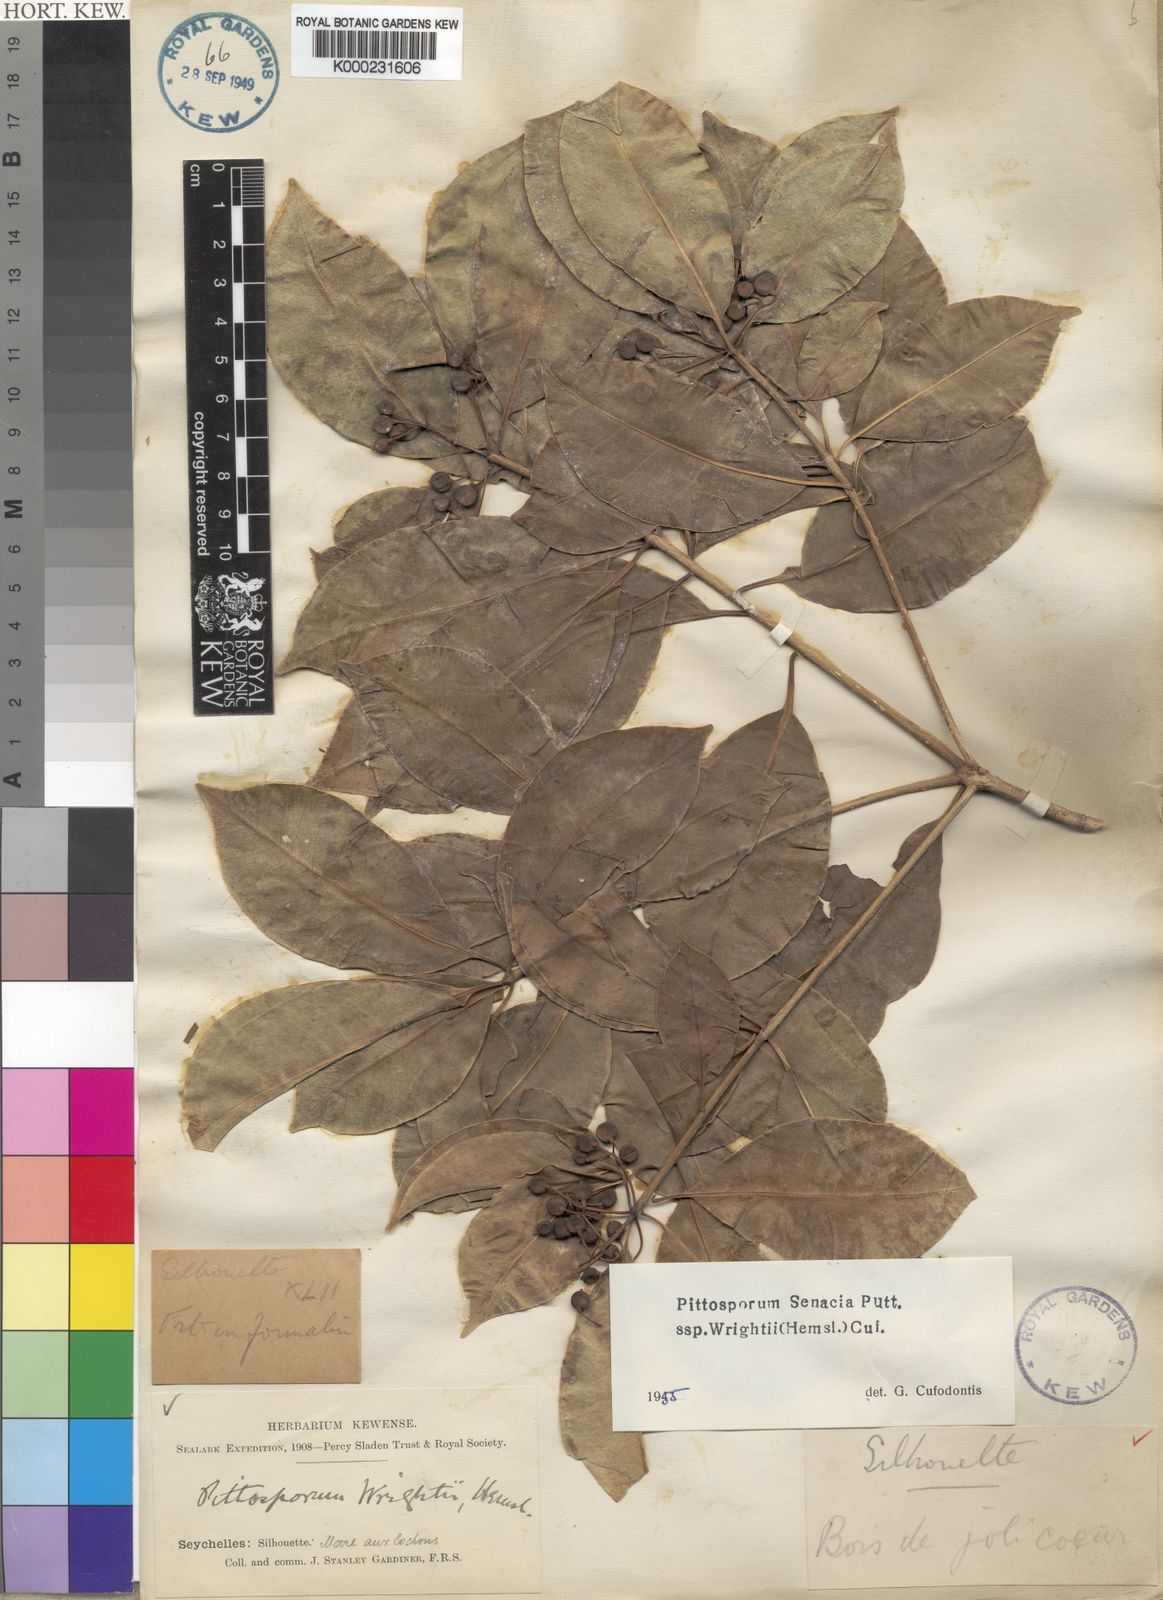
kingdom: Plantae
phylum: Tracheophyta
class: Magnoliopsida
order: Apiales
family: Pittosporaceae
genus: Pittosporum
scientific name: Pittosporum senacia
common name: Cheesewood
